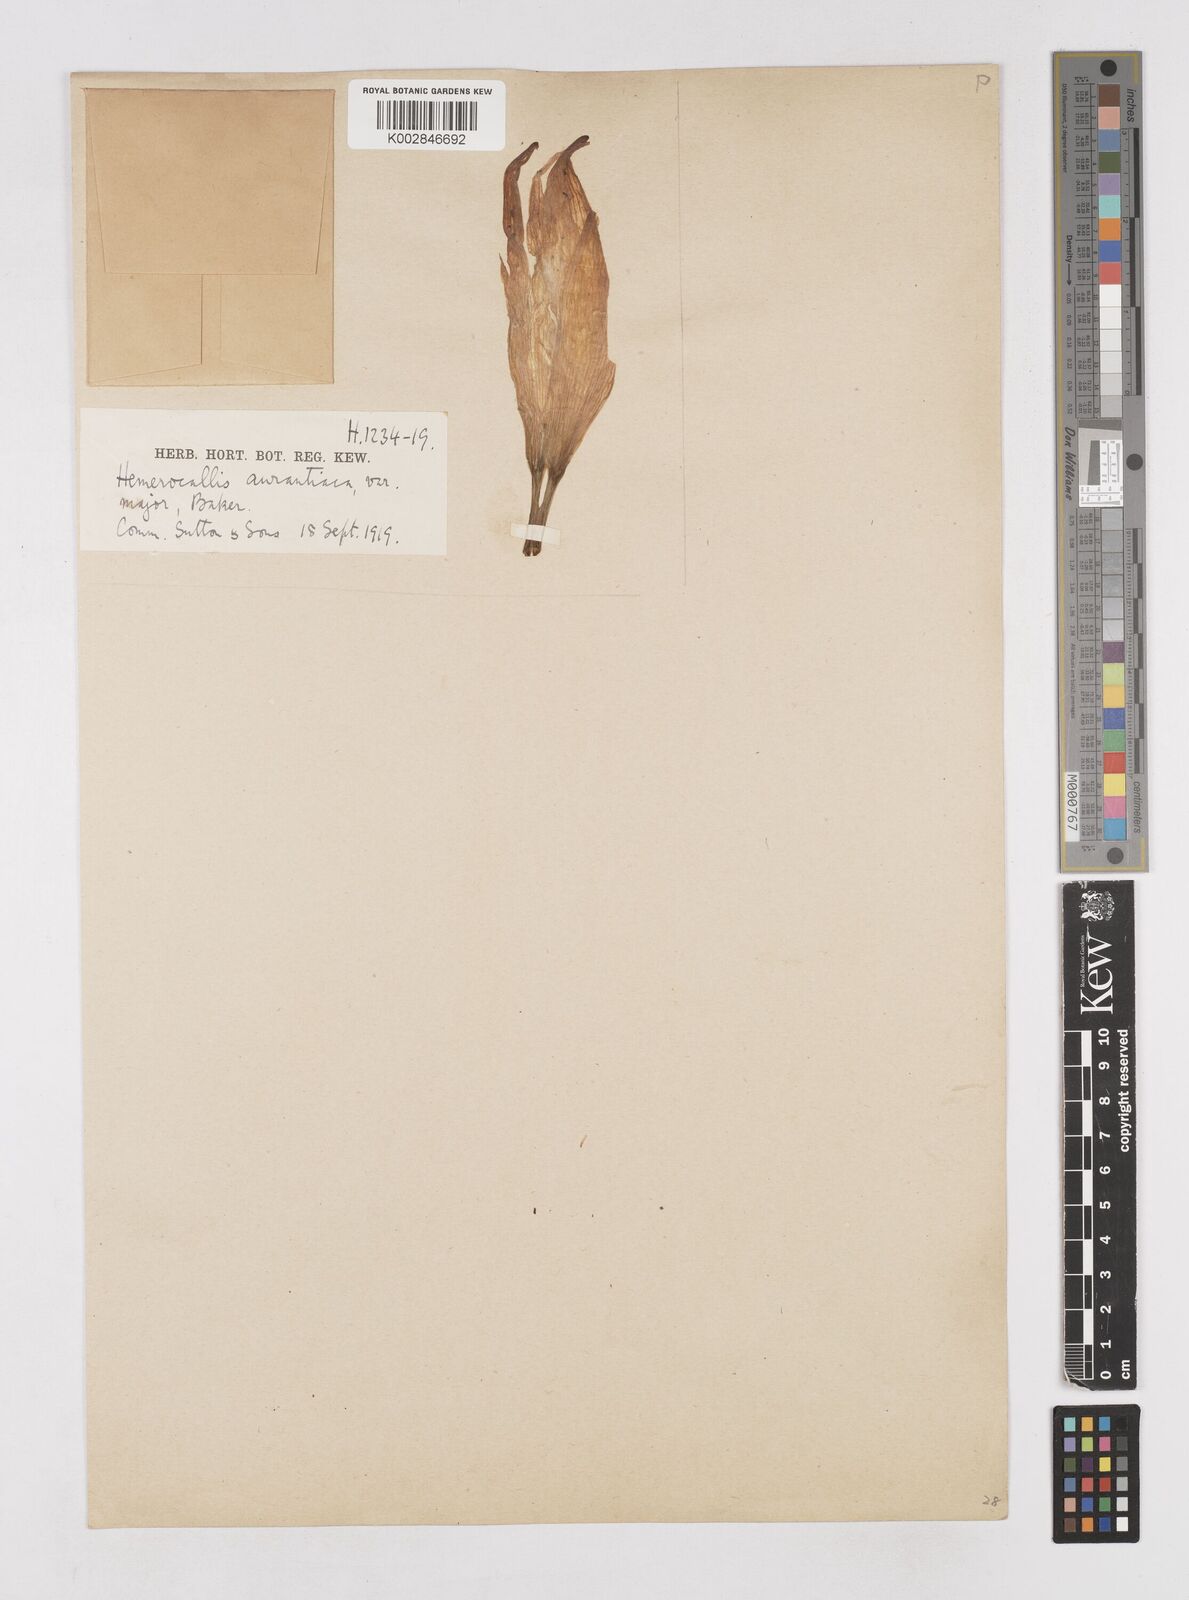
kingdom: Plantae
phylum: Tracheophyta
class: Liliopsida
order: Asparagales
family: Asphodelaceae
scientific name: Asphodelaceae
